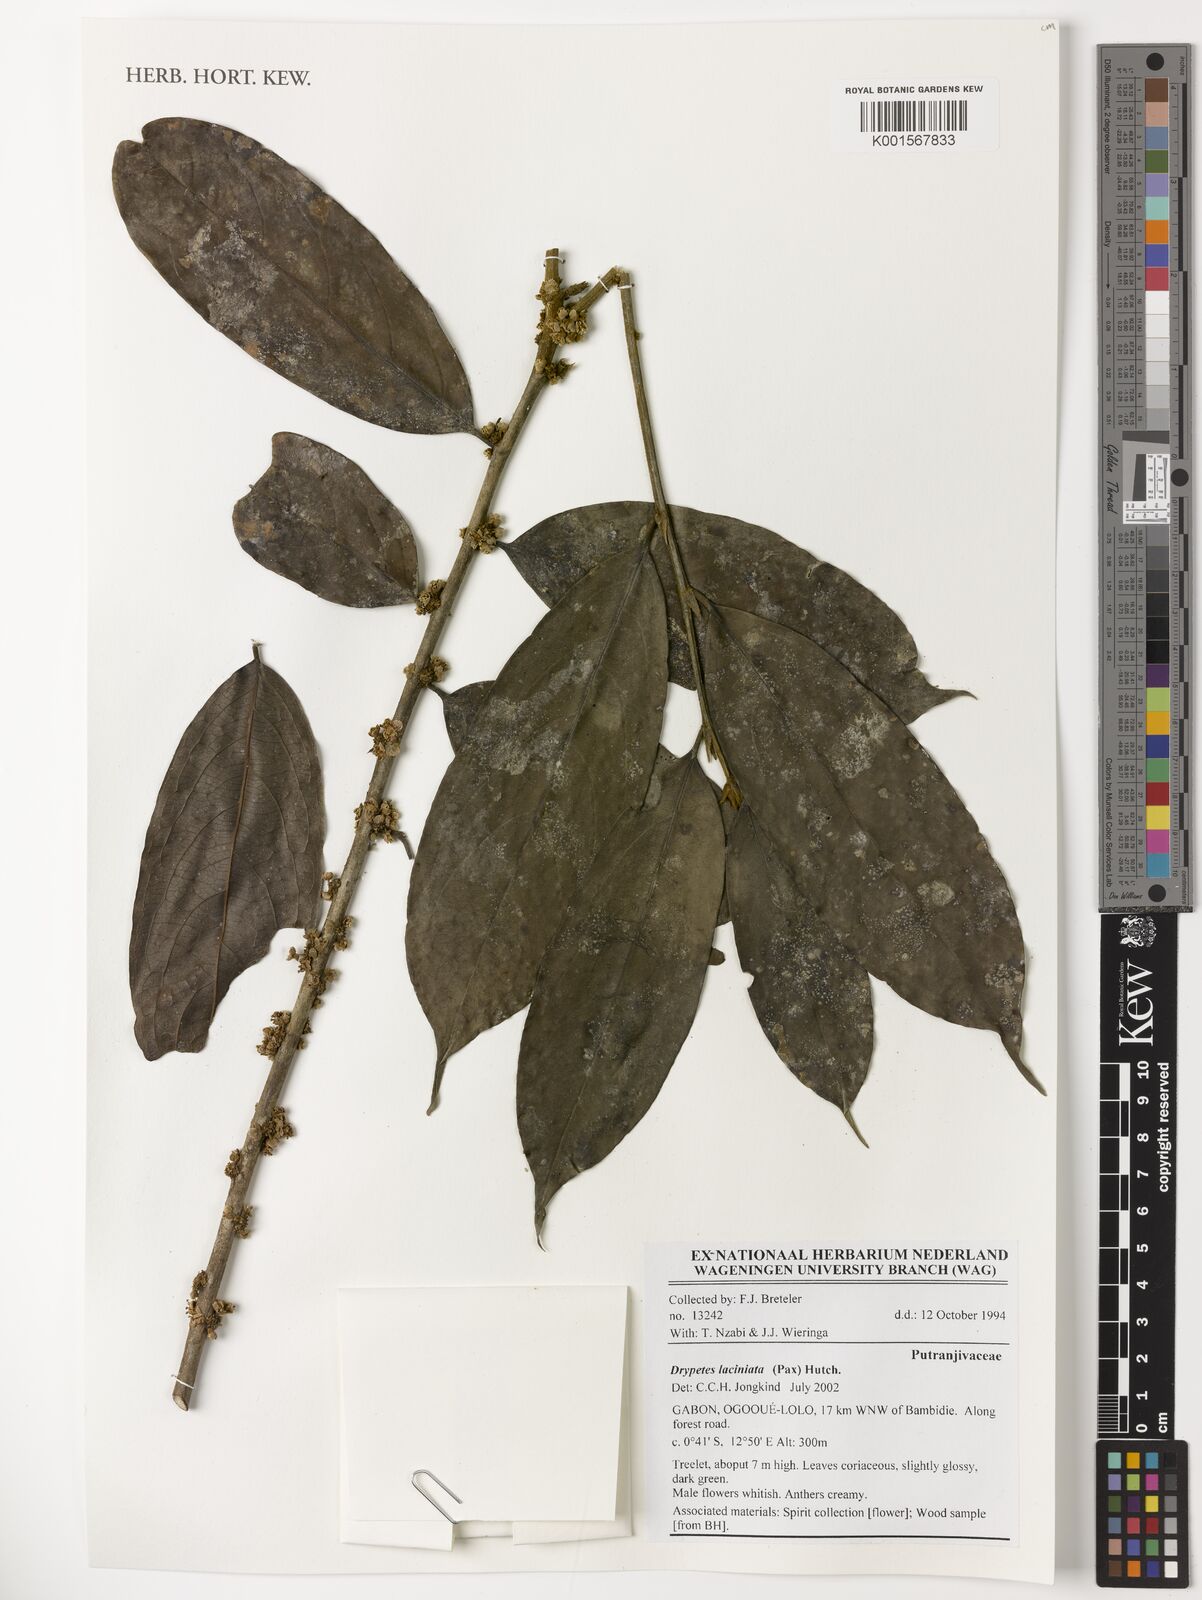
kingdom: Plantae
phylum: Tracheophyta
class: Magnoliopsida
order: Malpighiales
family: Putranjivaceae
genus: Drypetes
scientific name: Drypetes laciniata
